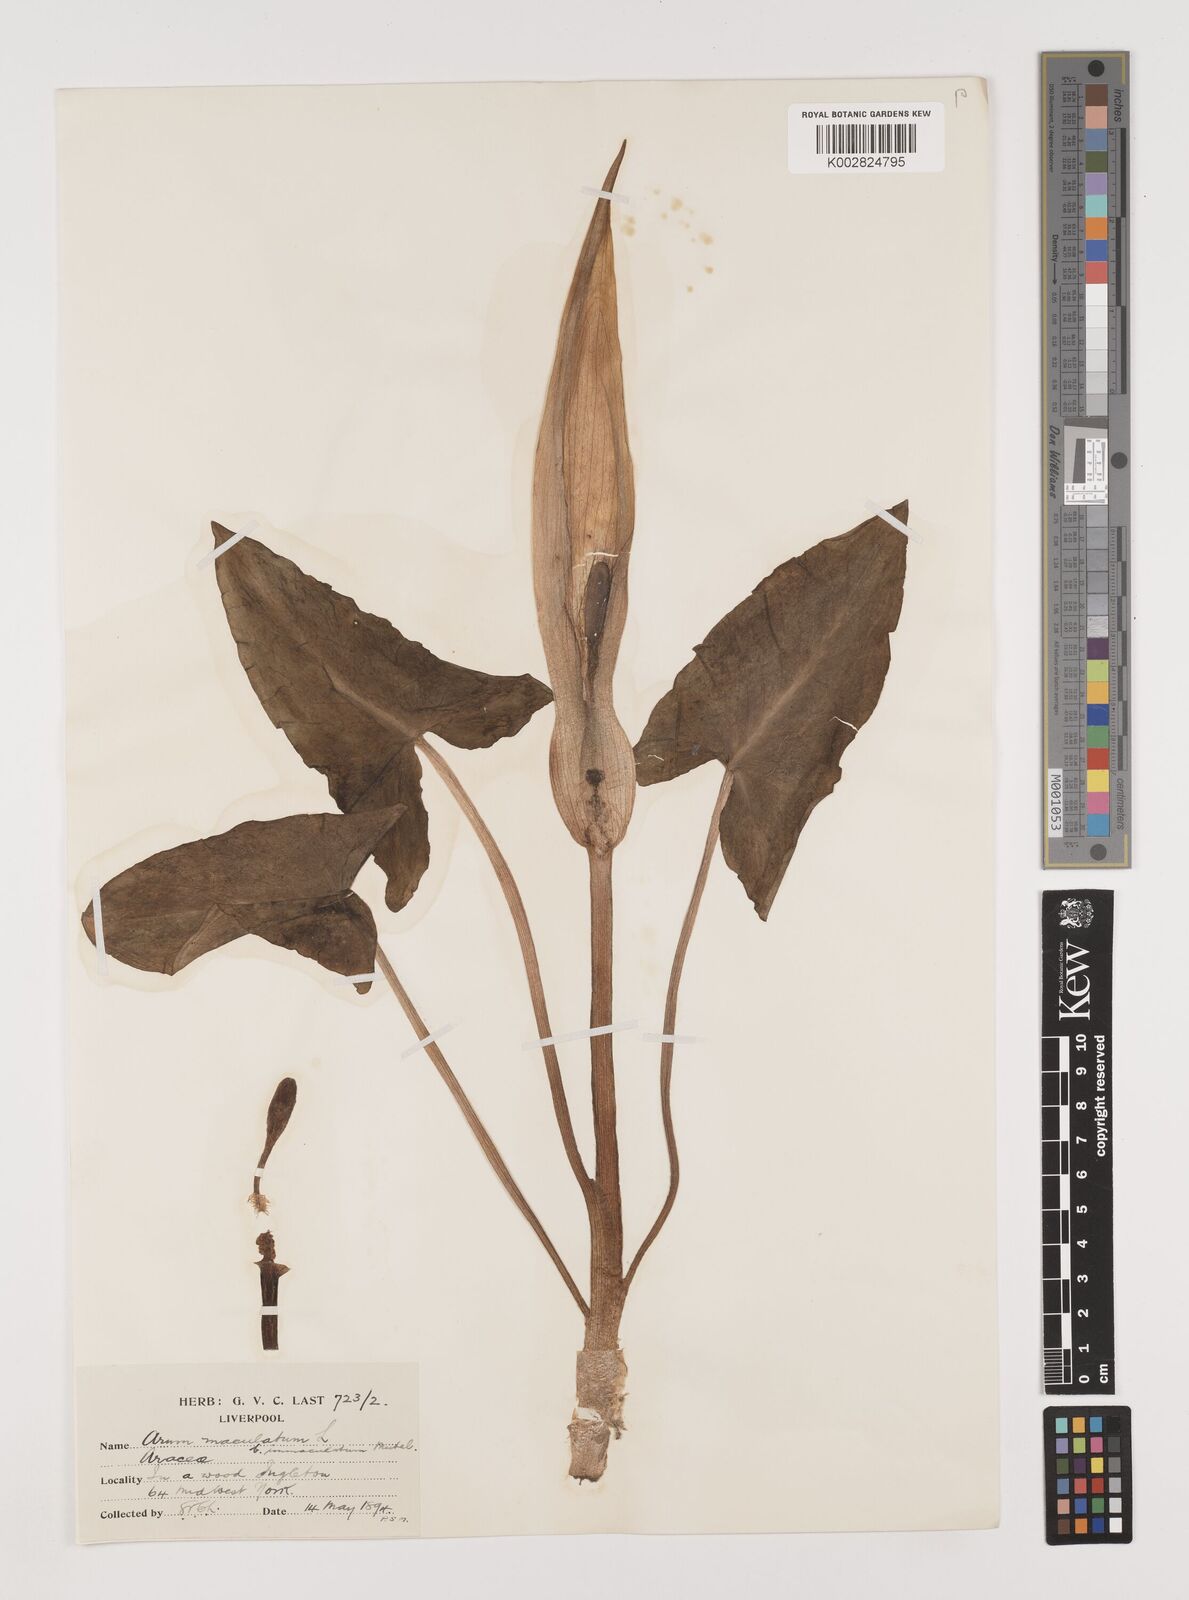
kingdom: Plantae
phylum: Tracheophyta
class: Liliopsida
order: Alismatales
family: Araceae
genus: Arum
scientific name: Arum maculatum
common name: Lords-and-ladies
